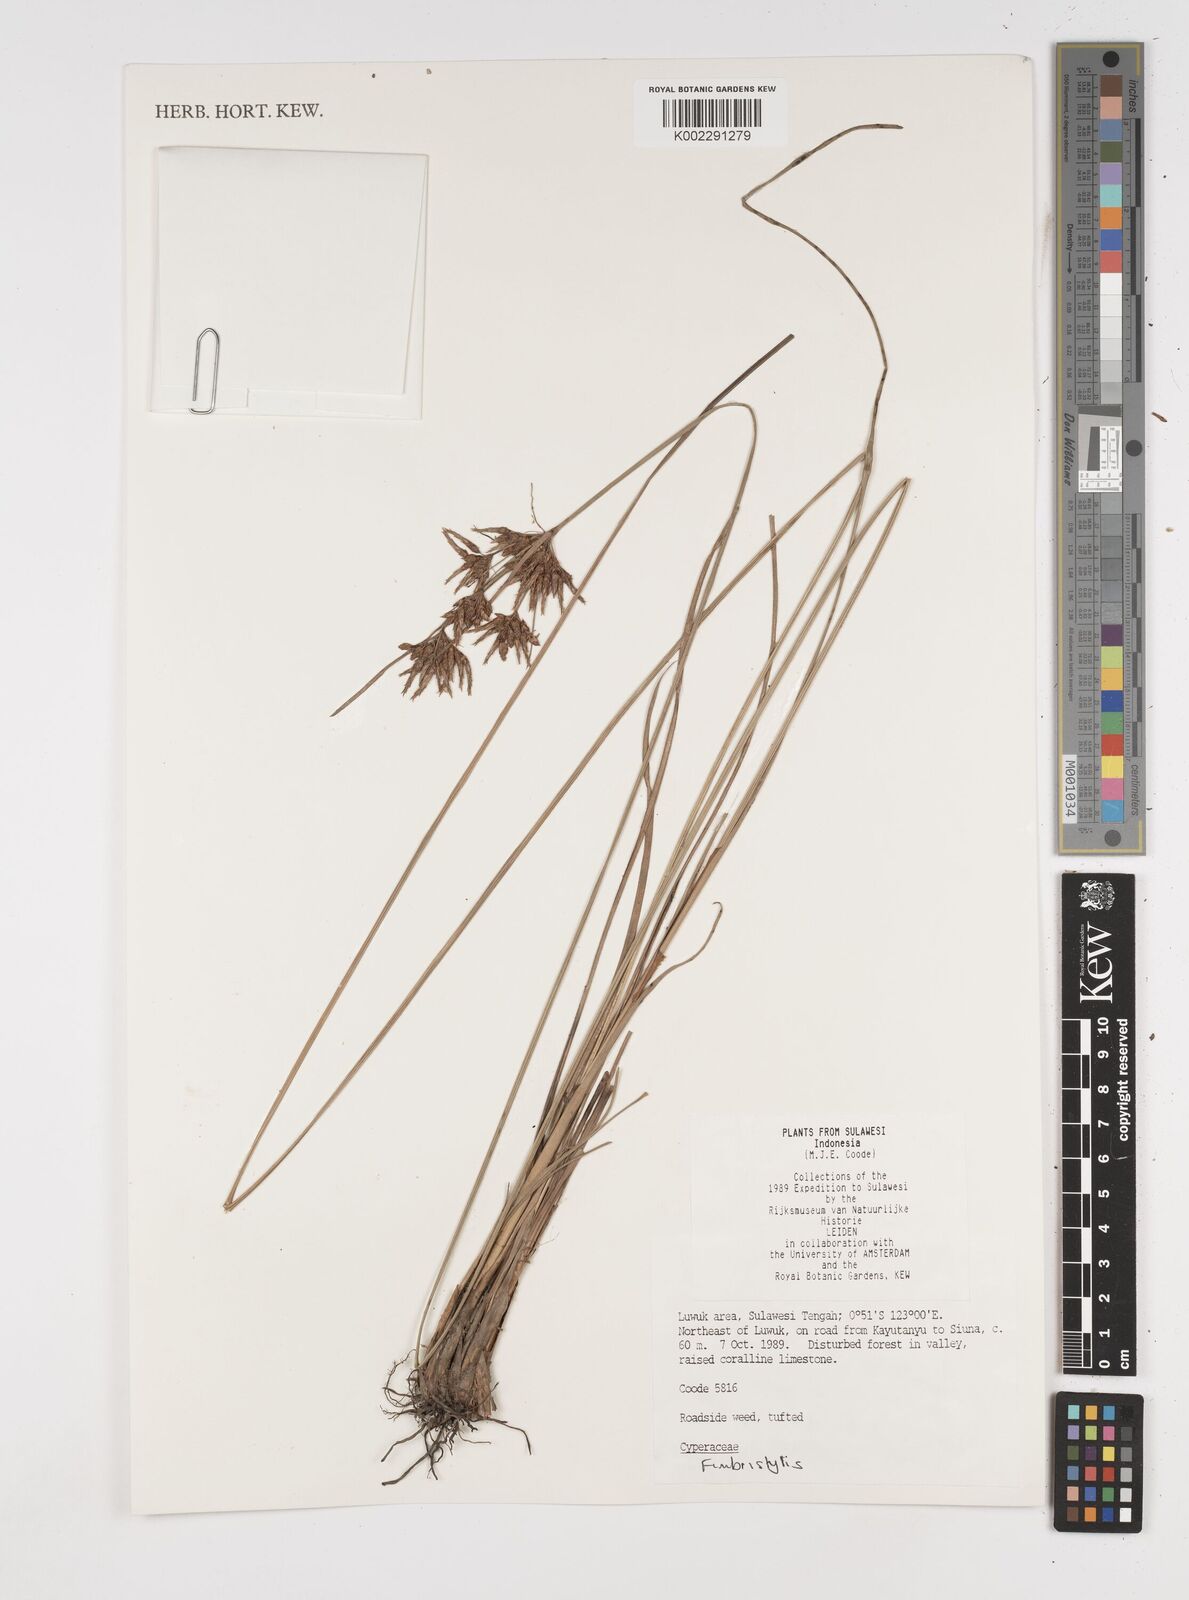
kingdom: Plantae
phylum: Tracheophyta
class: Liliopsida
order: Poales
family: Cyperaceae
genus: Fimbristylis
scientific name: Fimbristylis
